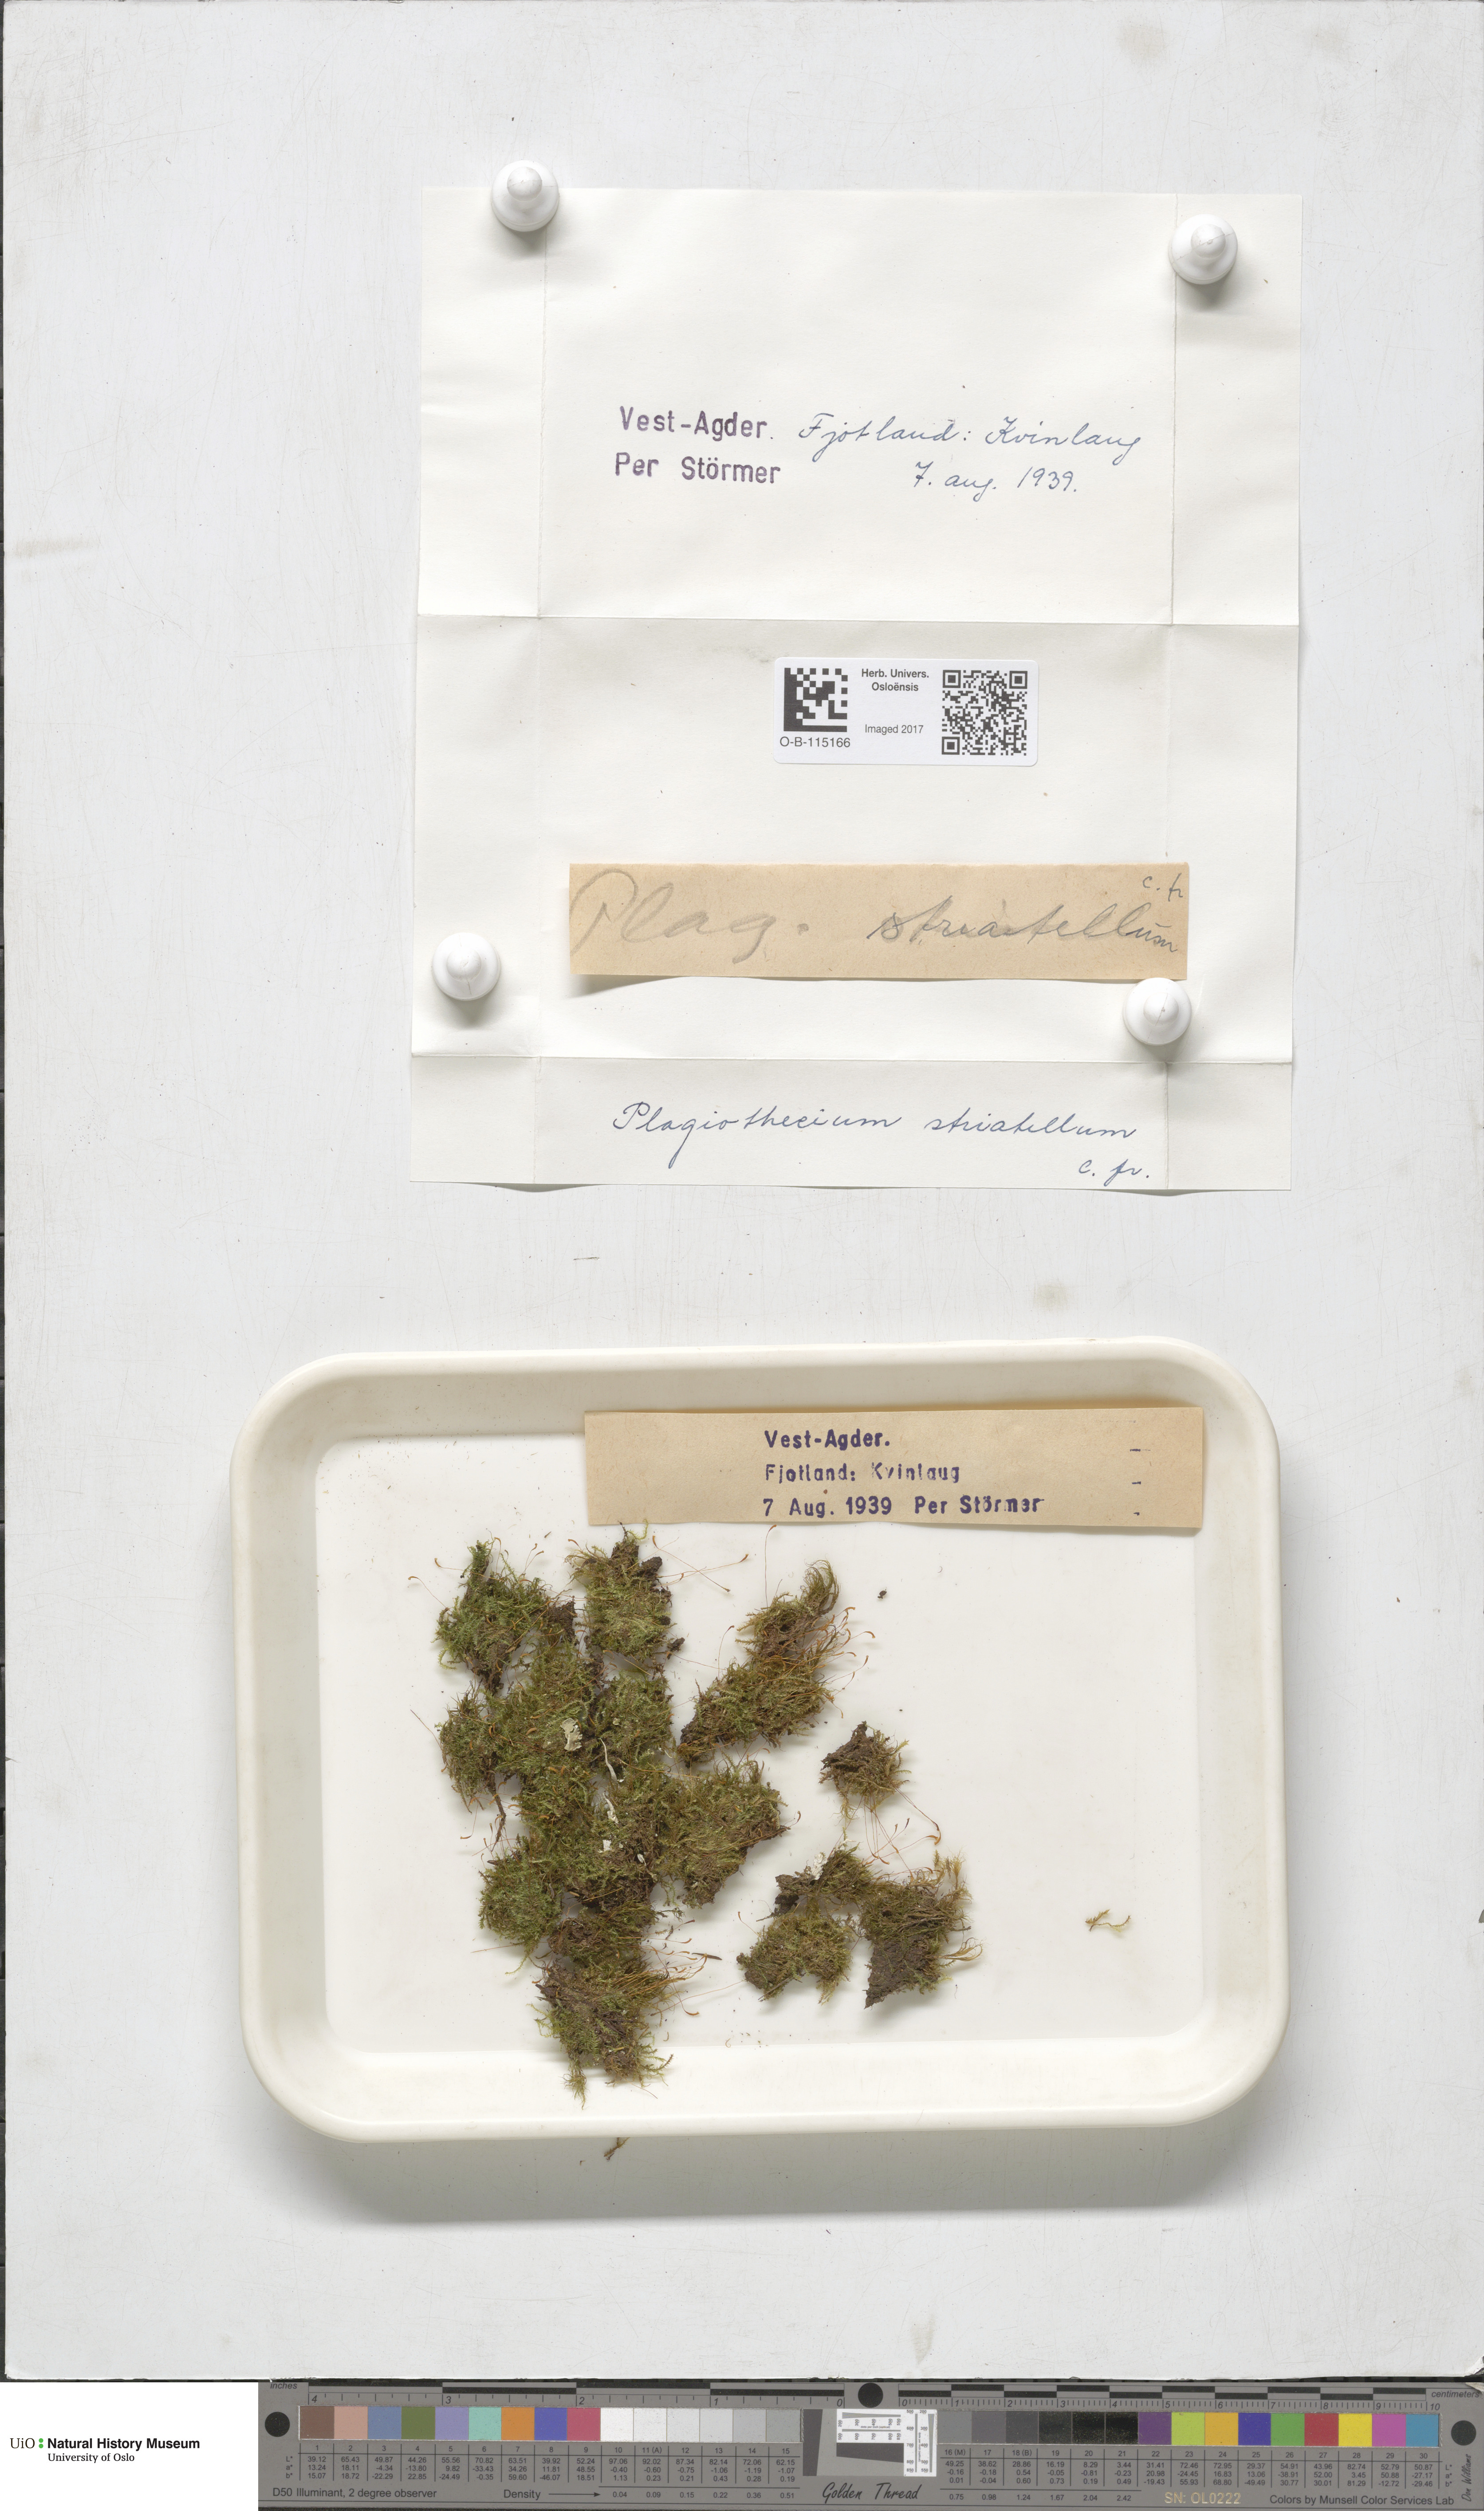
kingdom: Plantae
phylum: Bryophyta
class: Bryopsida
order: Hypnales
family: Plagiotheciaceae
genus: Herzogiella
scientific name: Herzogiella striatella
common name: Muhlenbeck's feather-moss
